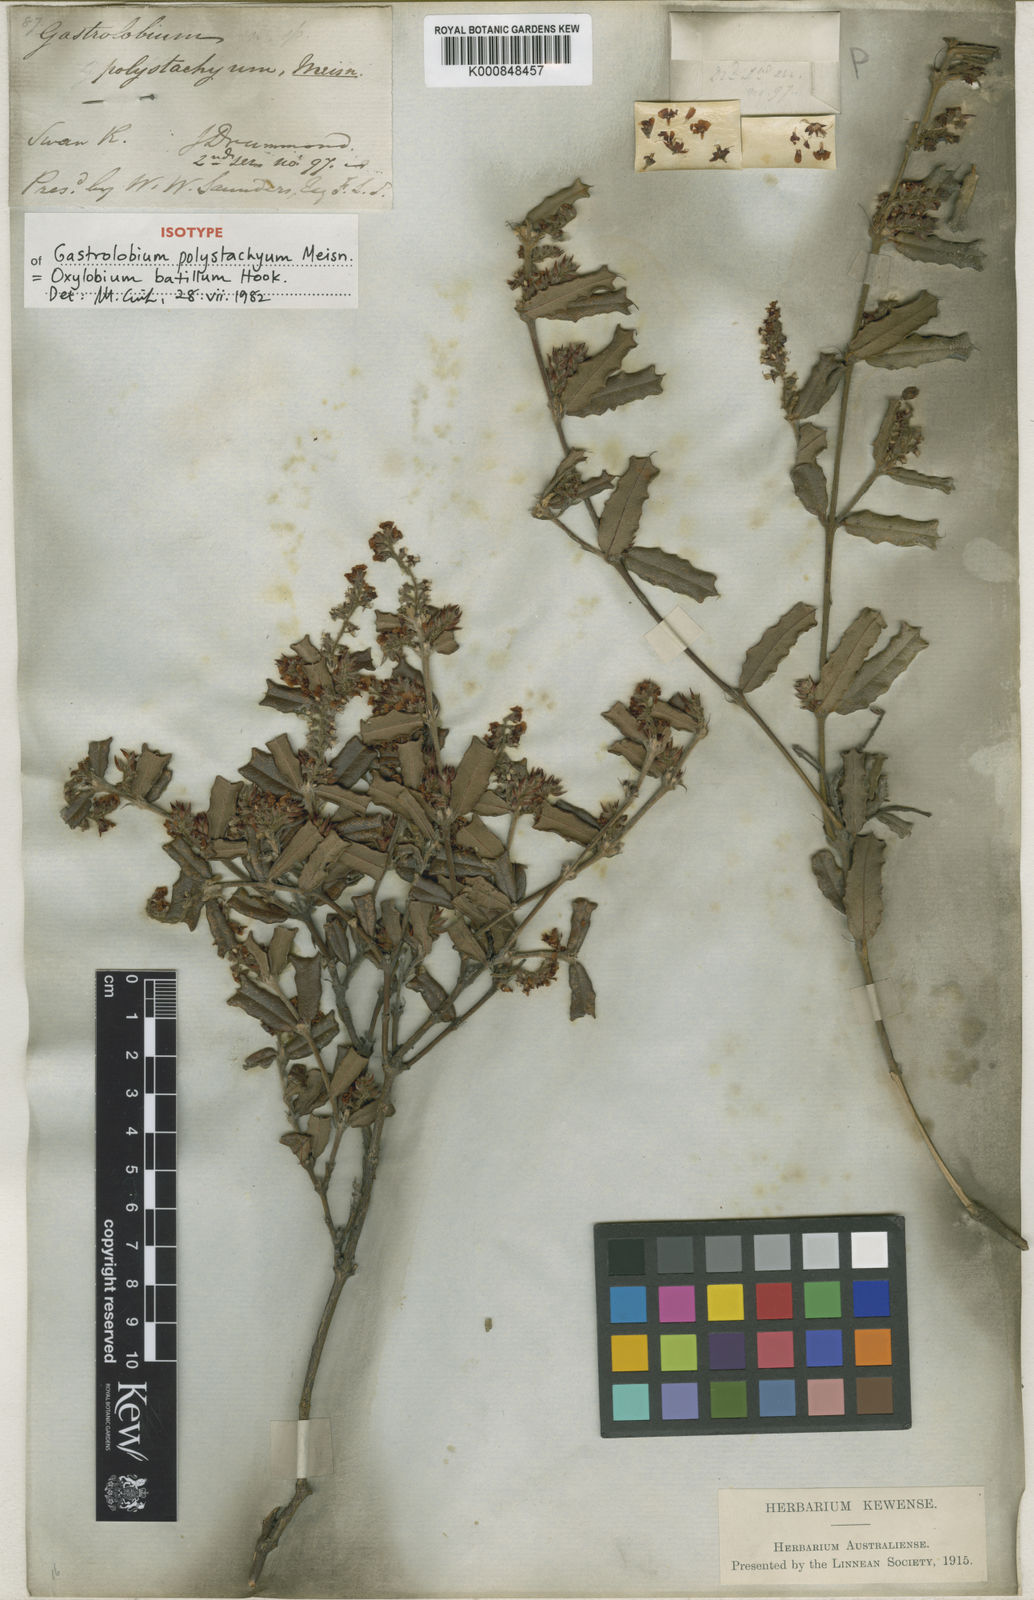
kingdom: Plantae
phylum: Tracheophyta
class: Magnoliopsida
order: Fabales
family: Fabaceae
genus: Gastrolobium
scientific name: Gastrolobium polystachyum
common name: Hill river poison
